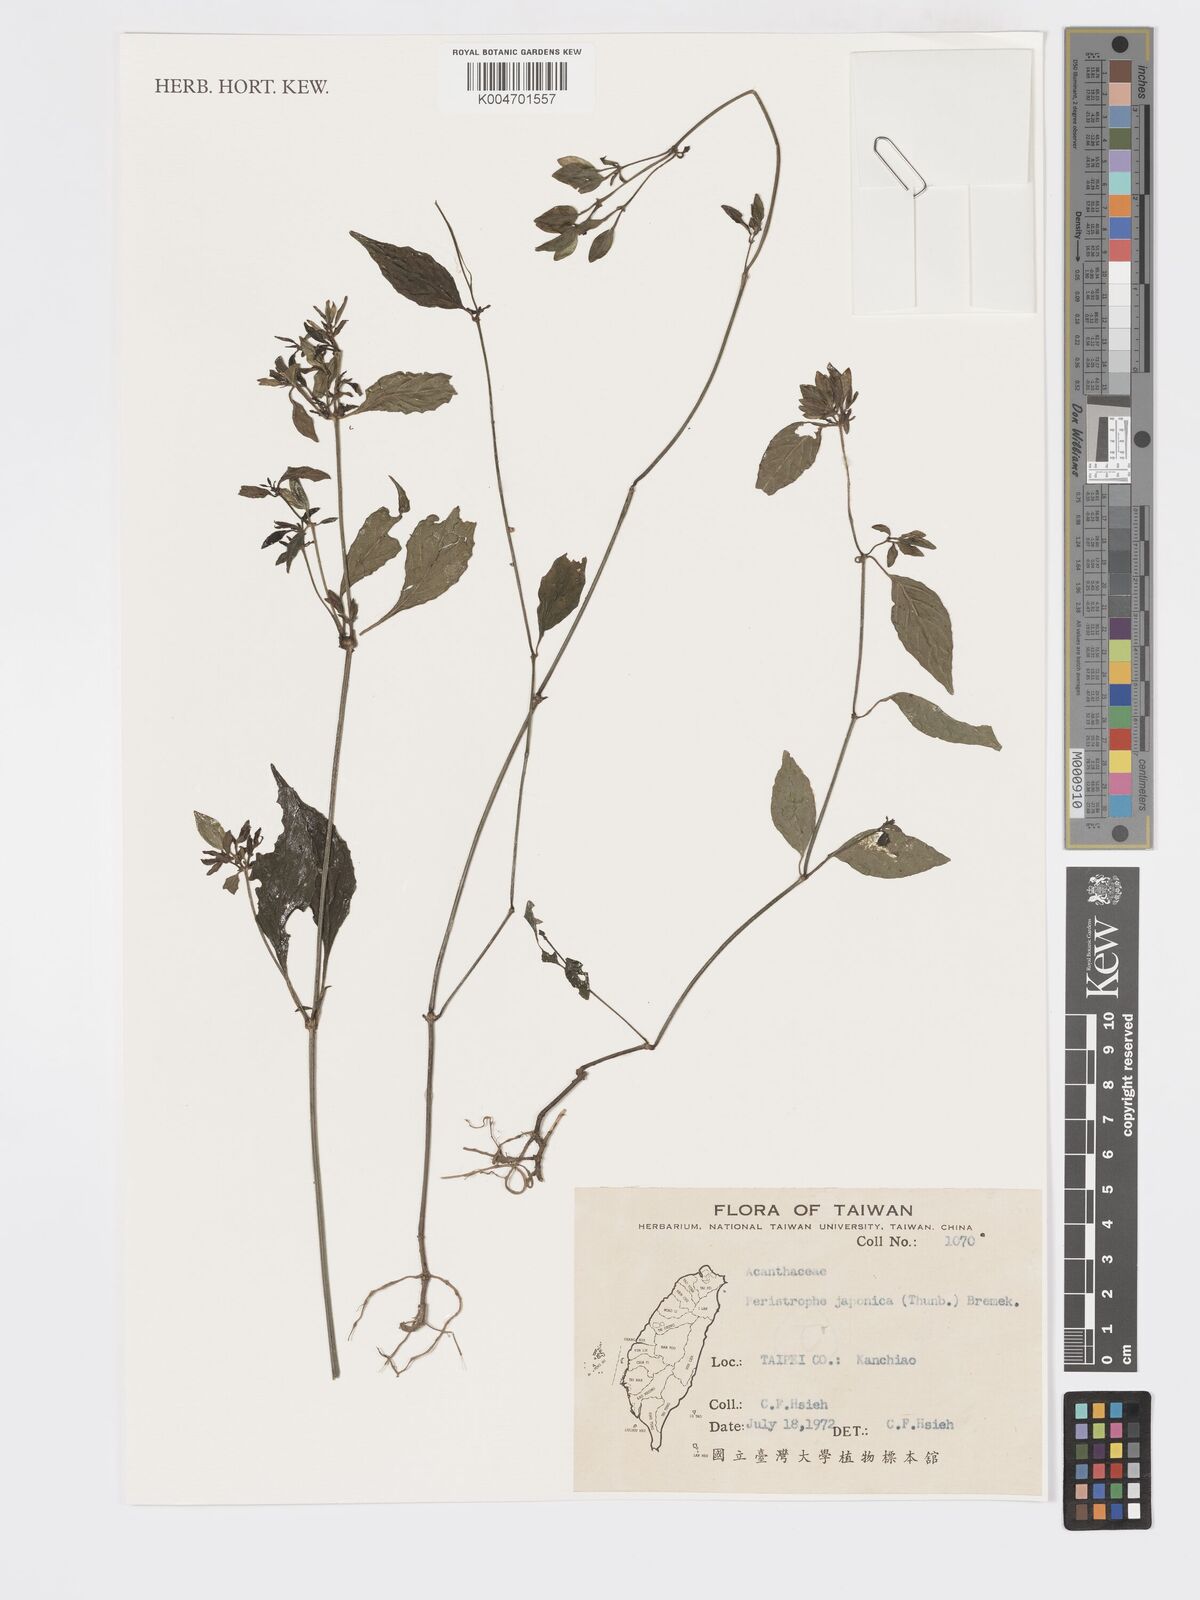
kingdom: Plantae
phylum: Tracheophyta
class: Magnoliopsida
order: Lamiales
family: Acanthaceae
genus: Dicliptera
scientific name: Dicliptera chinensis
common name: Chinese foldwing
